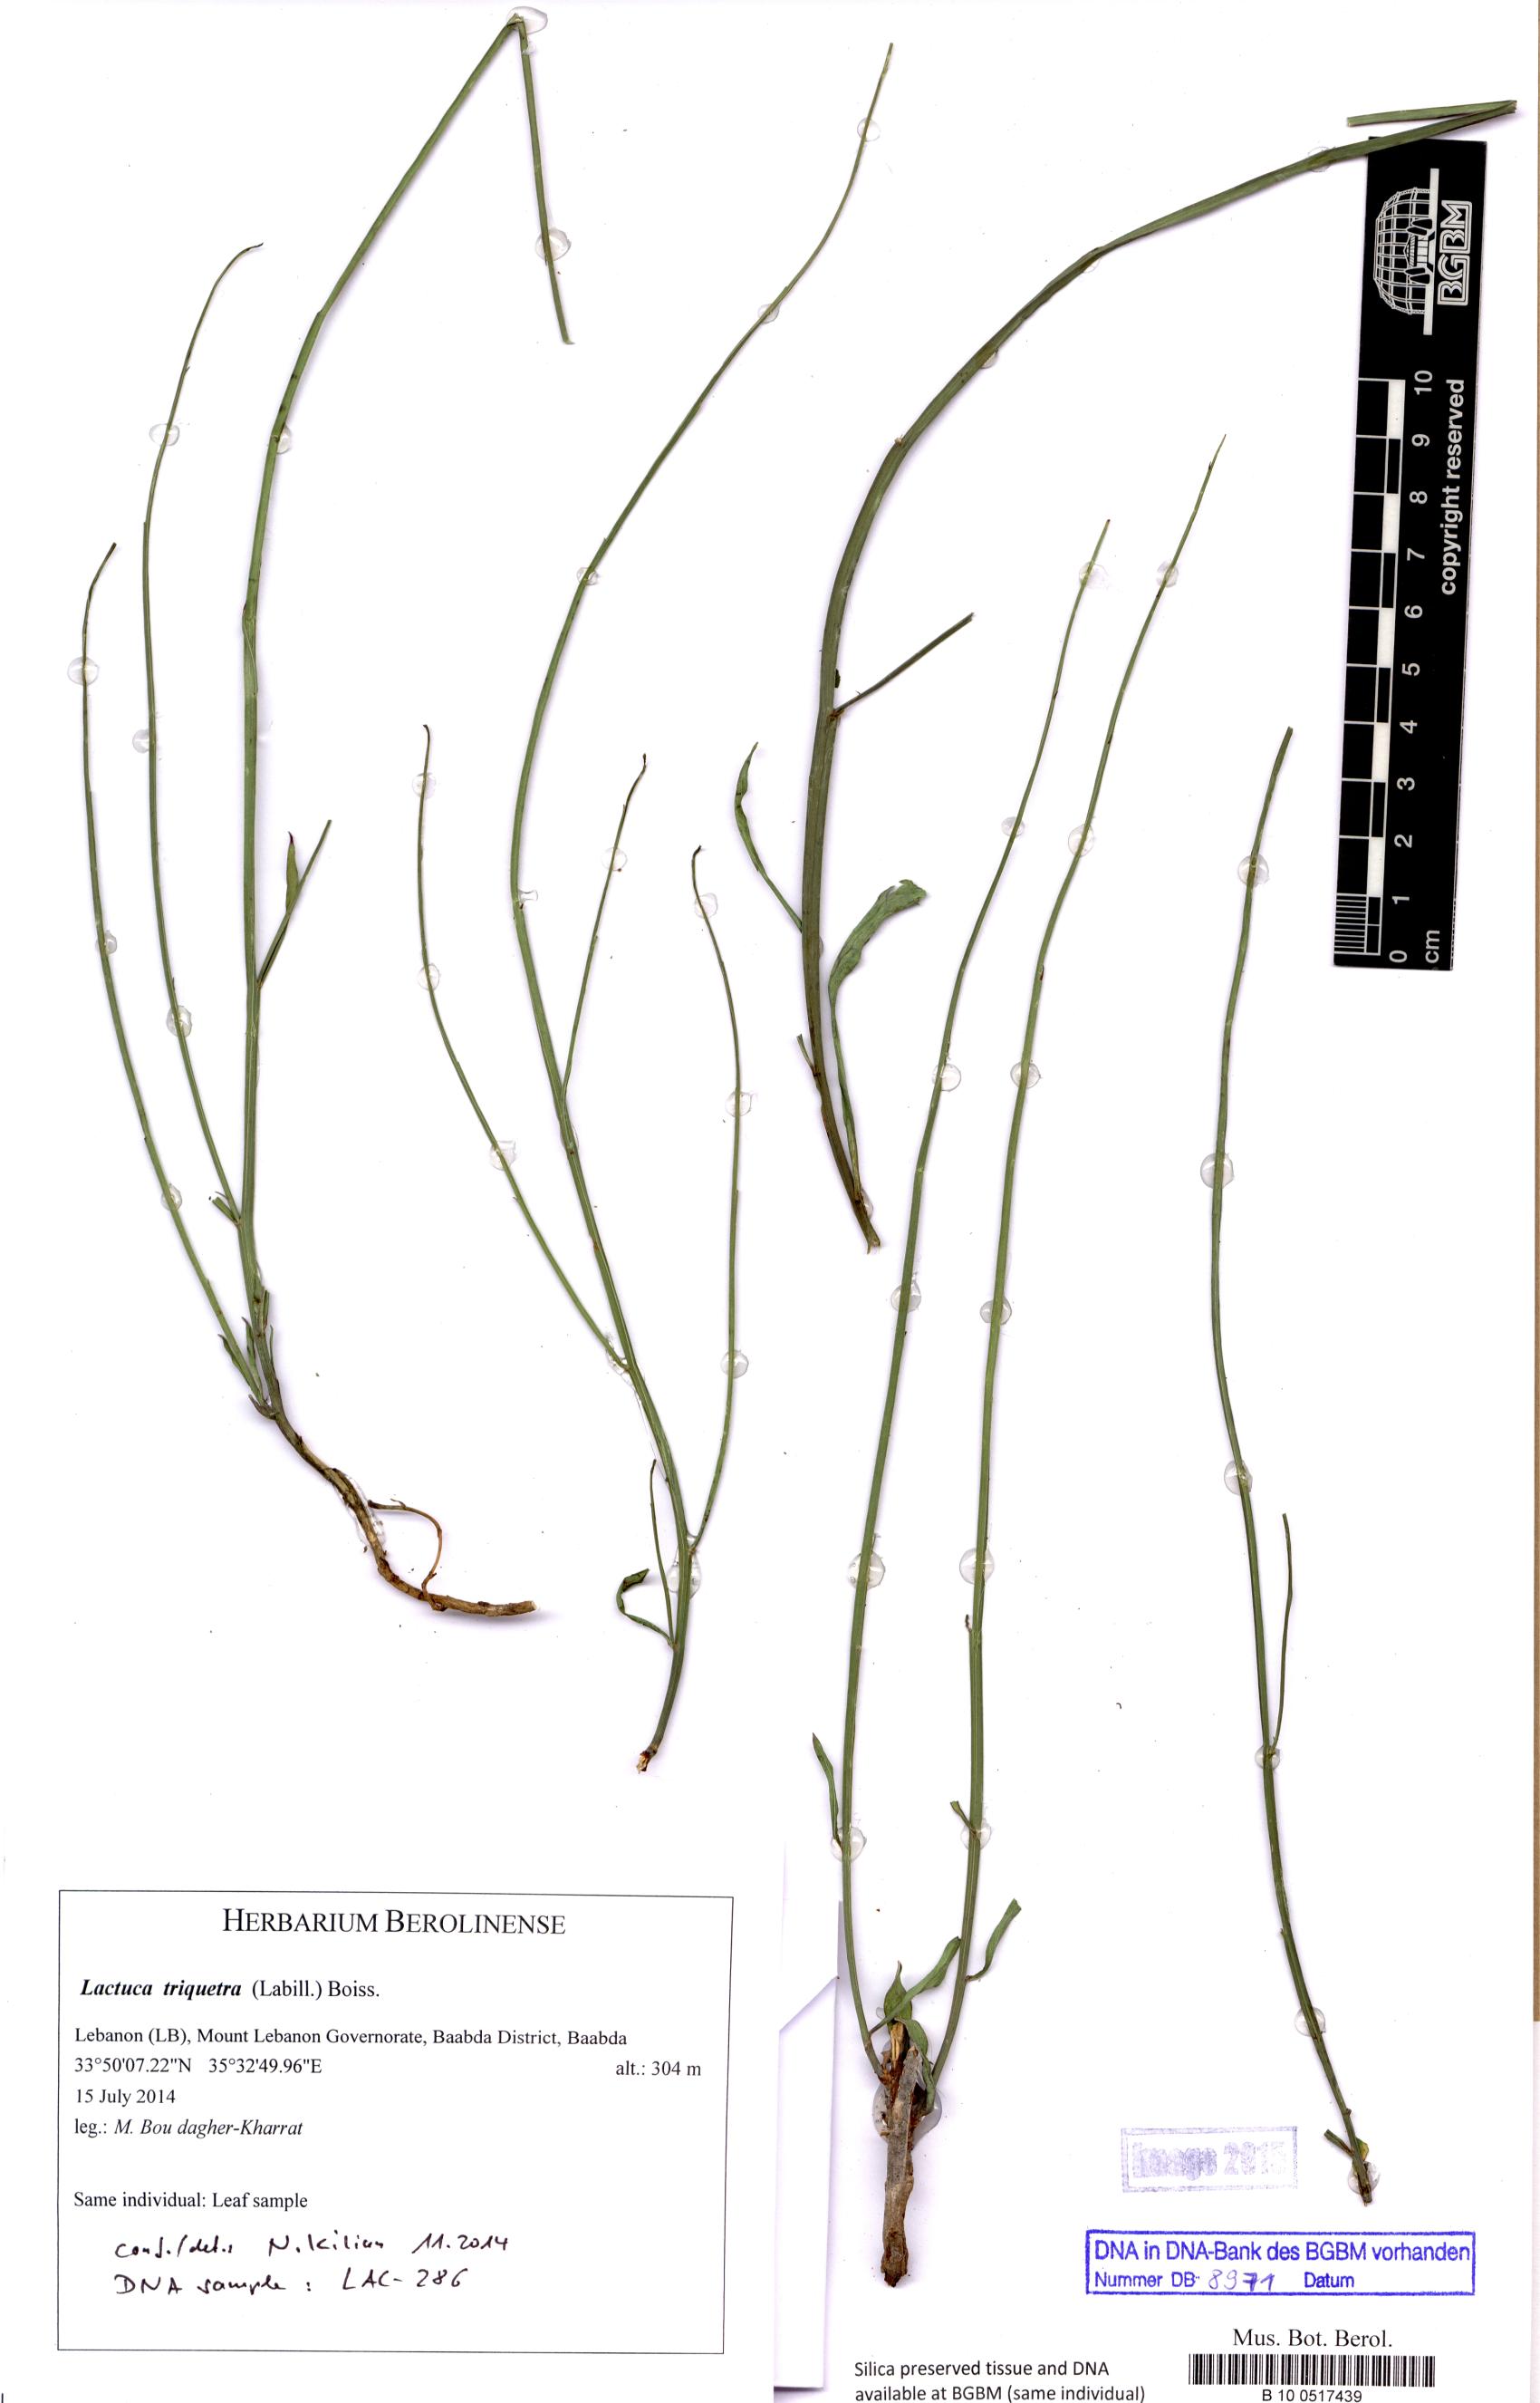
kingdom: Plantae
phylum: Tracheophyta
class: Magnoliopsida
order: Asterales
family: Asteraceae
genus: Astartoseris
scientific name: Astartoseris triquetra
